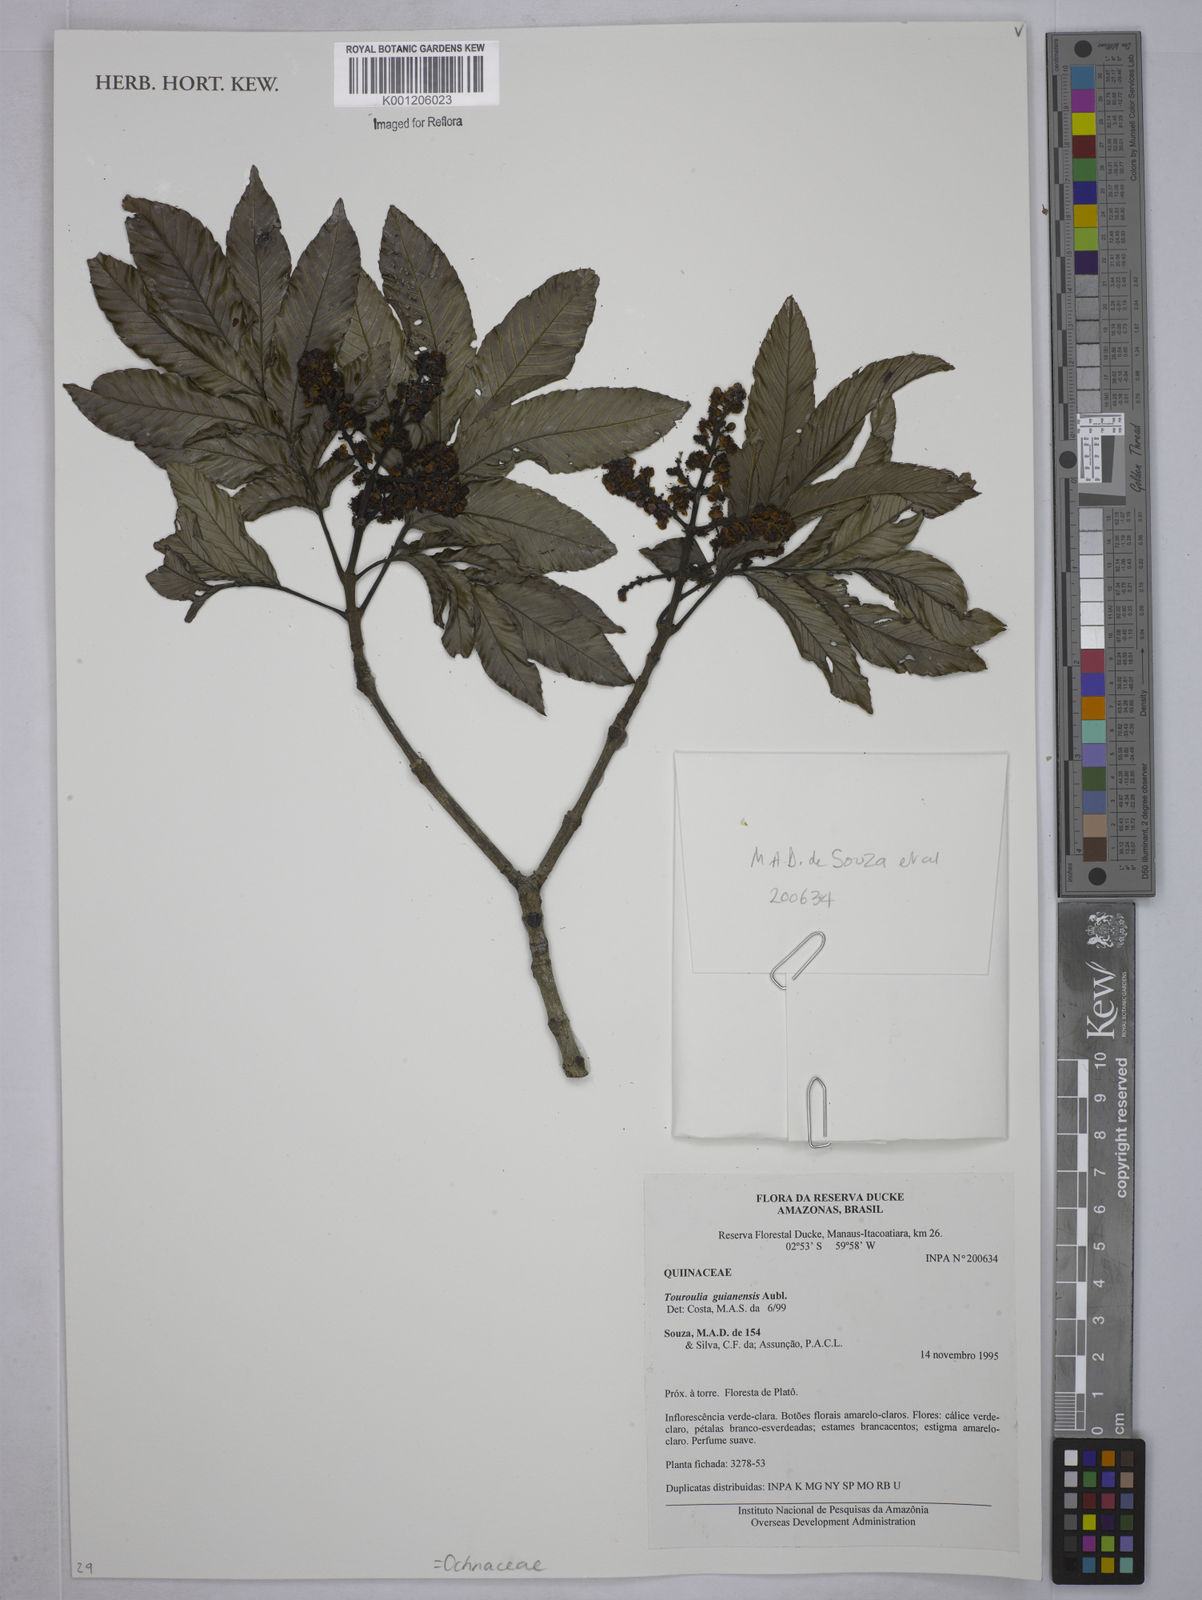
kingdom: Plantae
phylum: Tracheophyta
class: Magnoliopsida
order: Malpighiales
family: Quiinaceae
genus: Touroulia
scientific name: Touroulia guianensis
